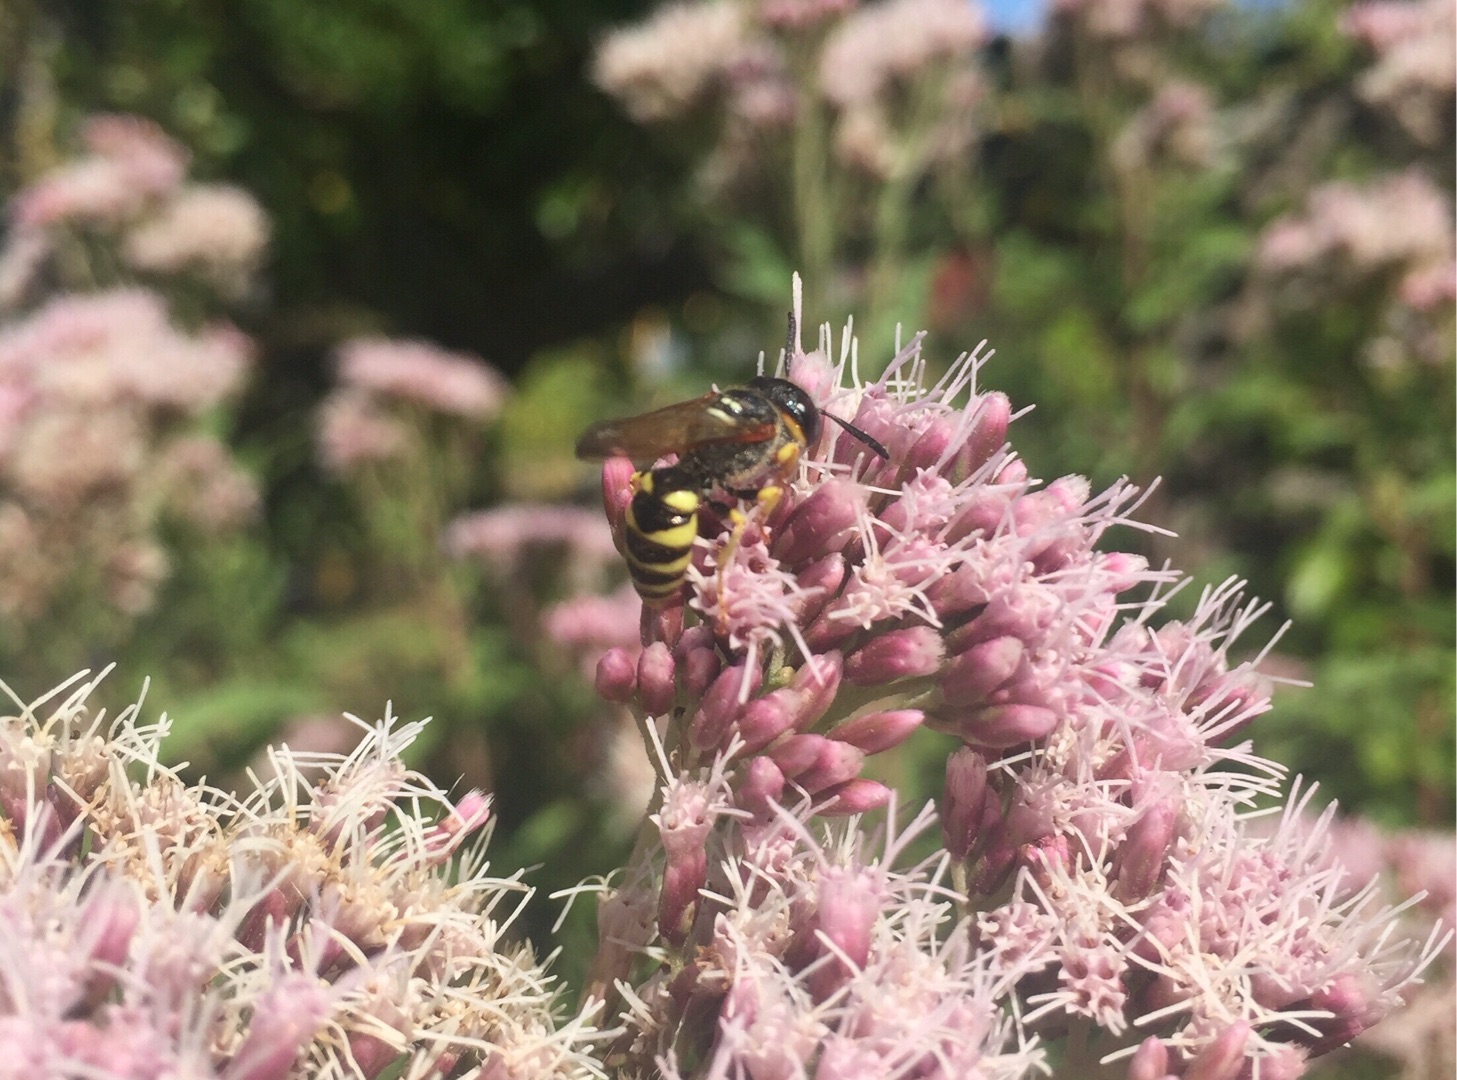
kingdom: Animalia
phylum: Arthropoda
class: Insecta
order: Hymenoptera
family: Crabronidae
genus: Philanthus
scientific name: Philanthus triangulum
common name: Biulv
